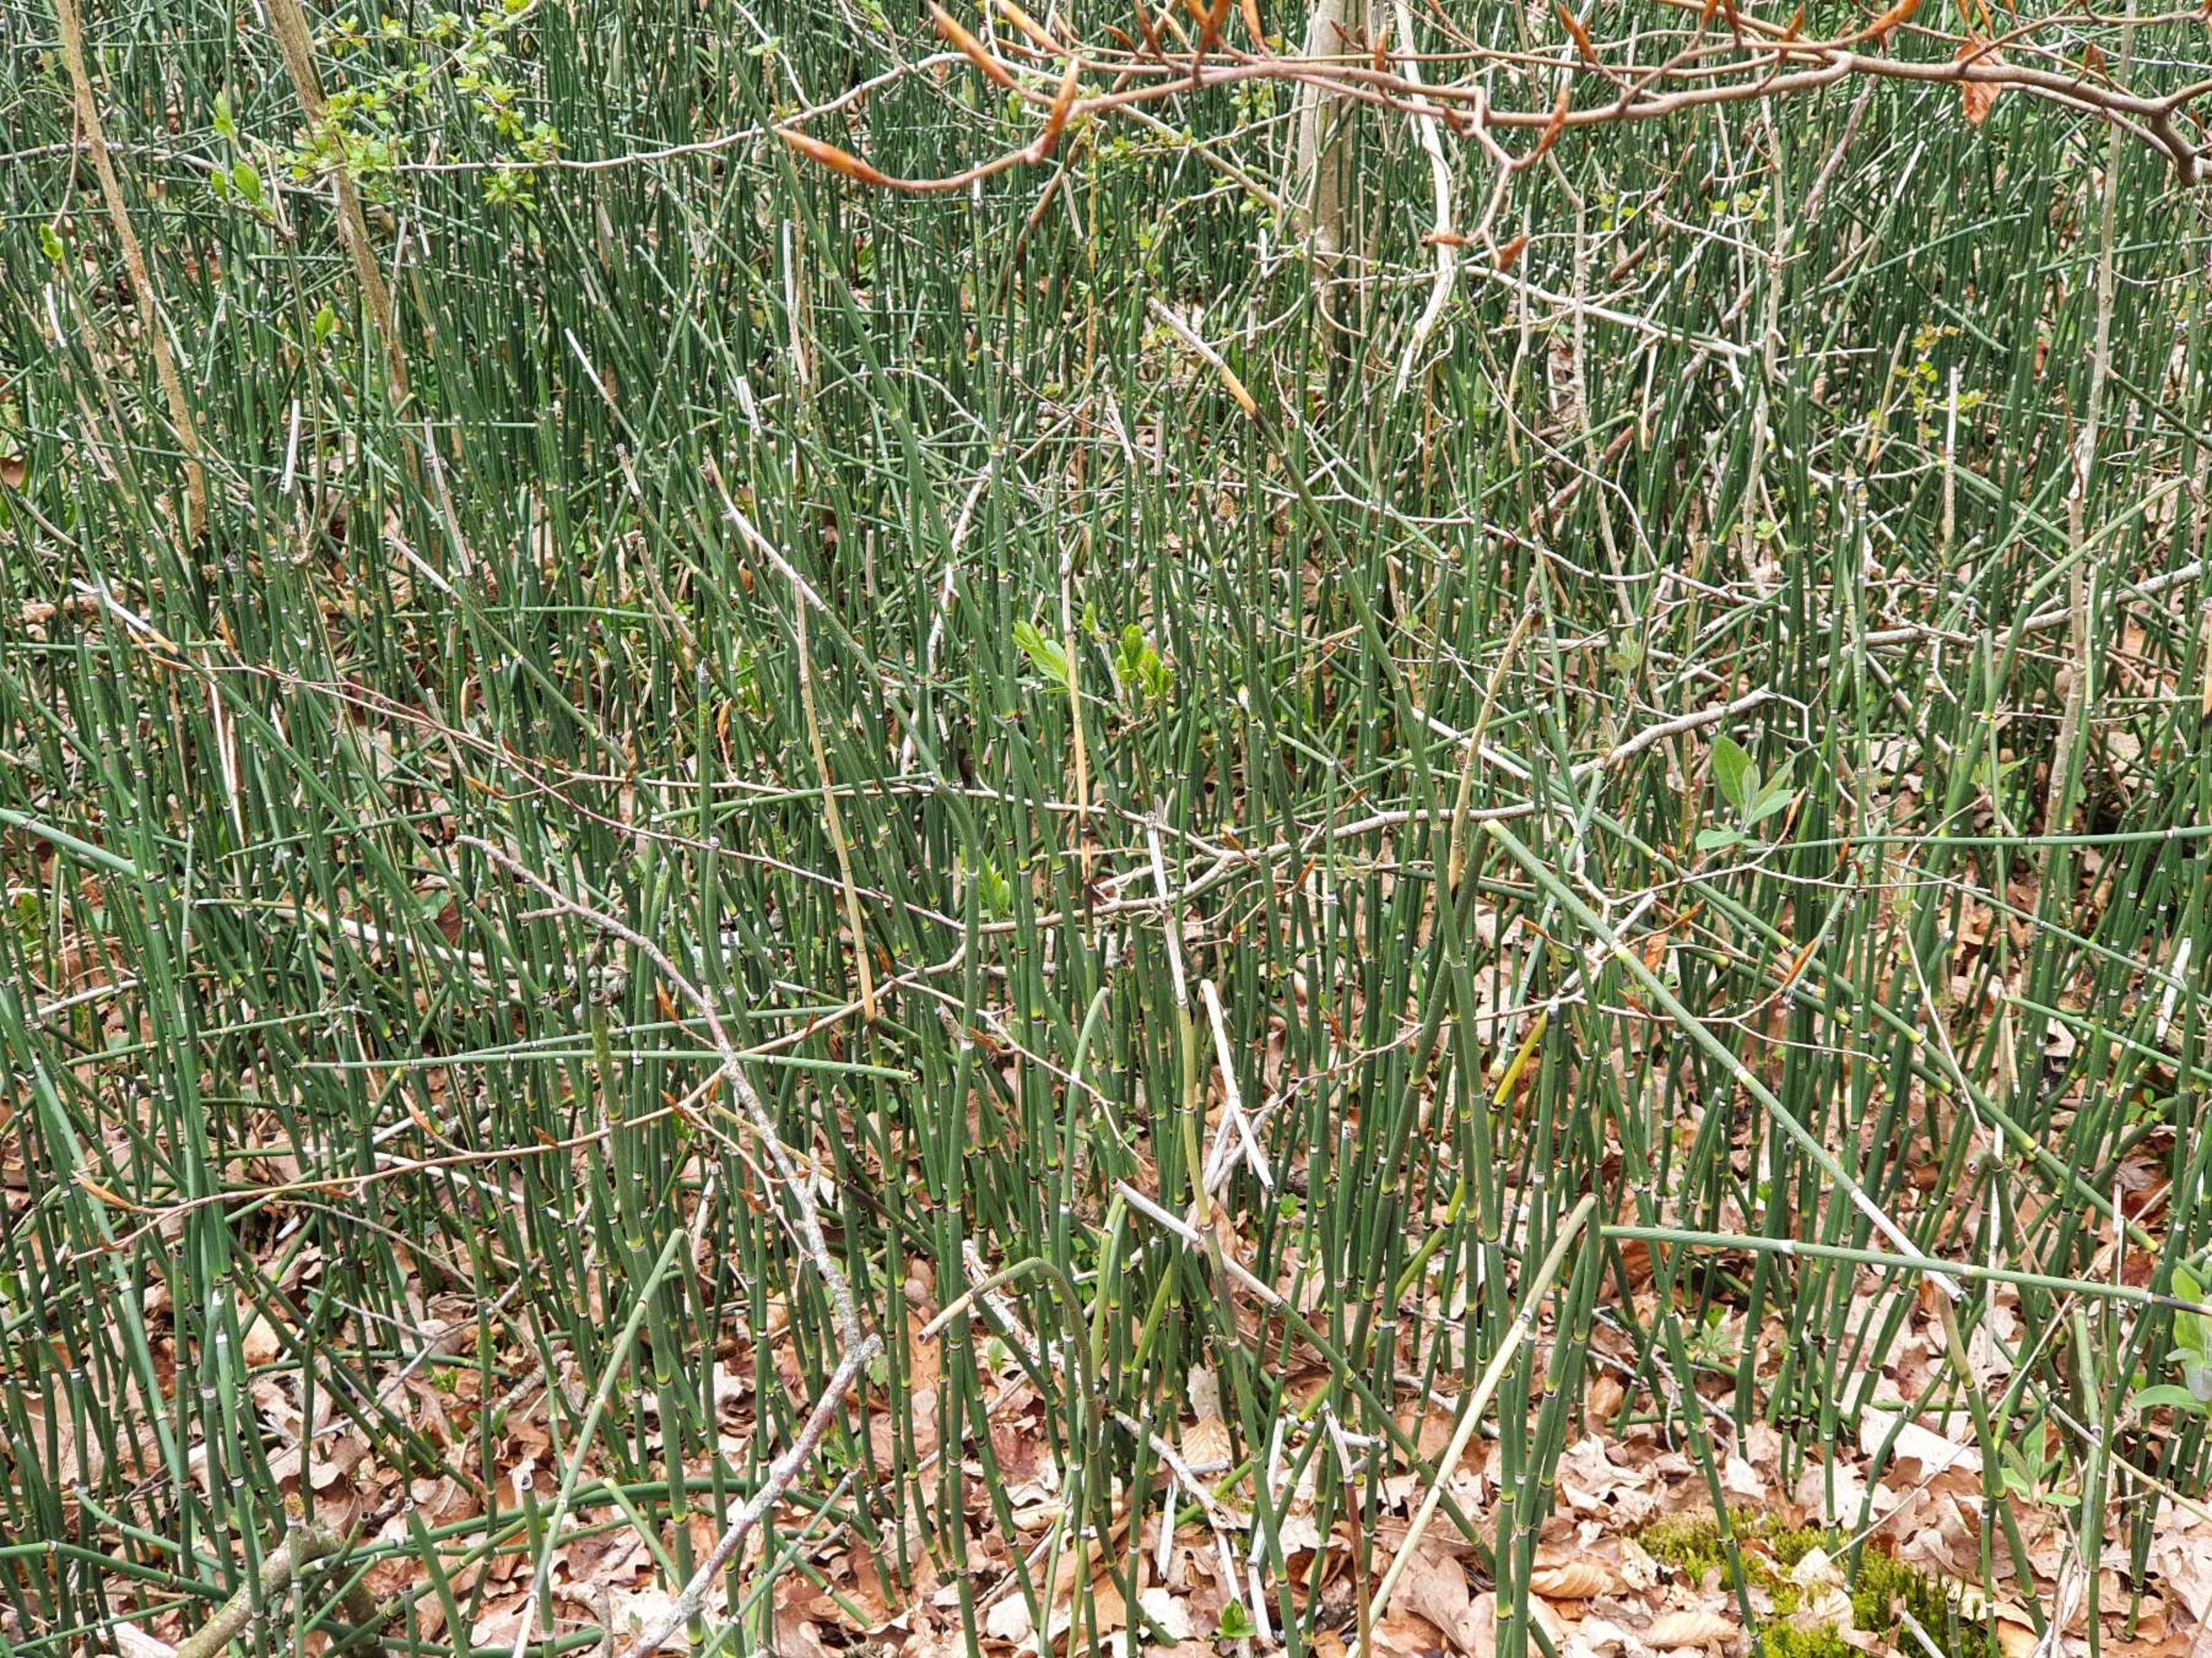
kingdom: Plantae
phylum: Tracheophyta
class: Polypodiopsida
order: Equisetales
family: Equisetaceae
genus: Equisetum
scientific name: Equisetum hyemale
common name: Skavgræs
